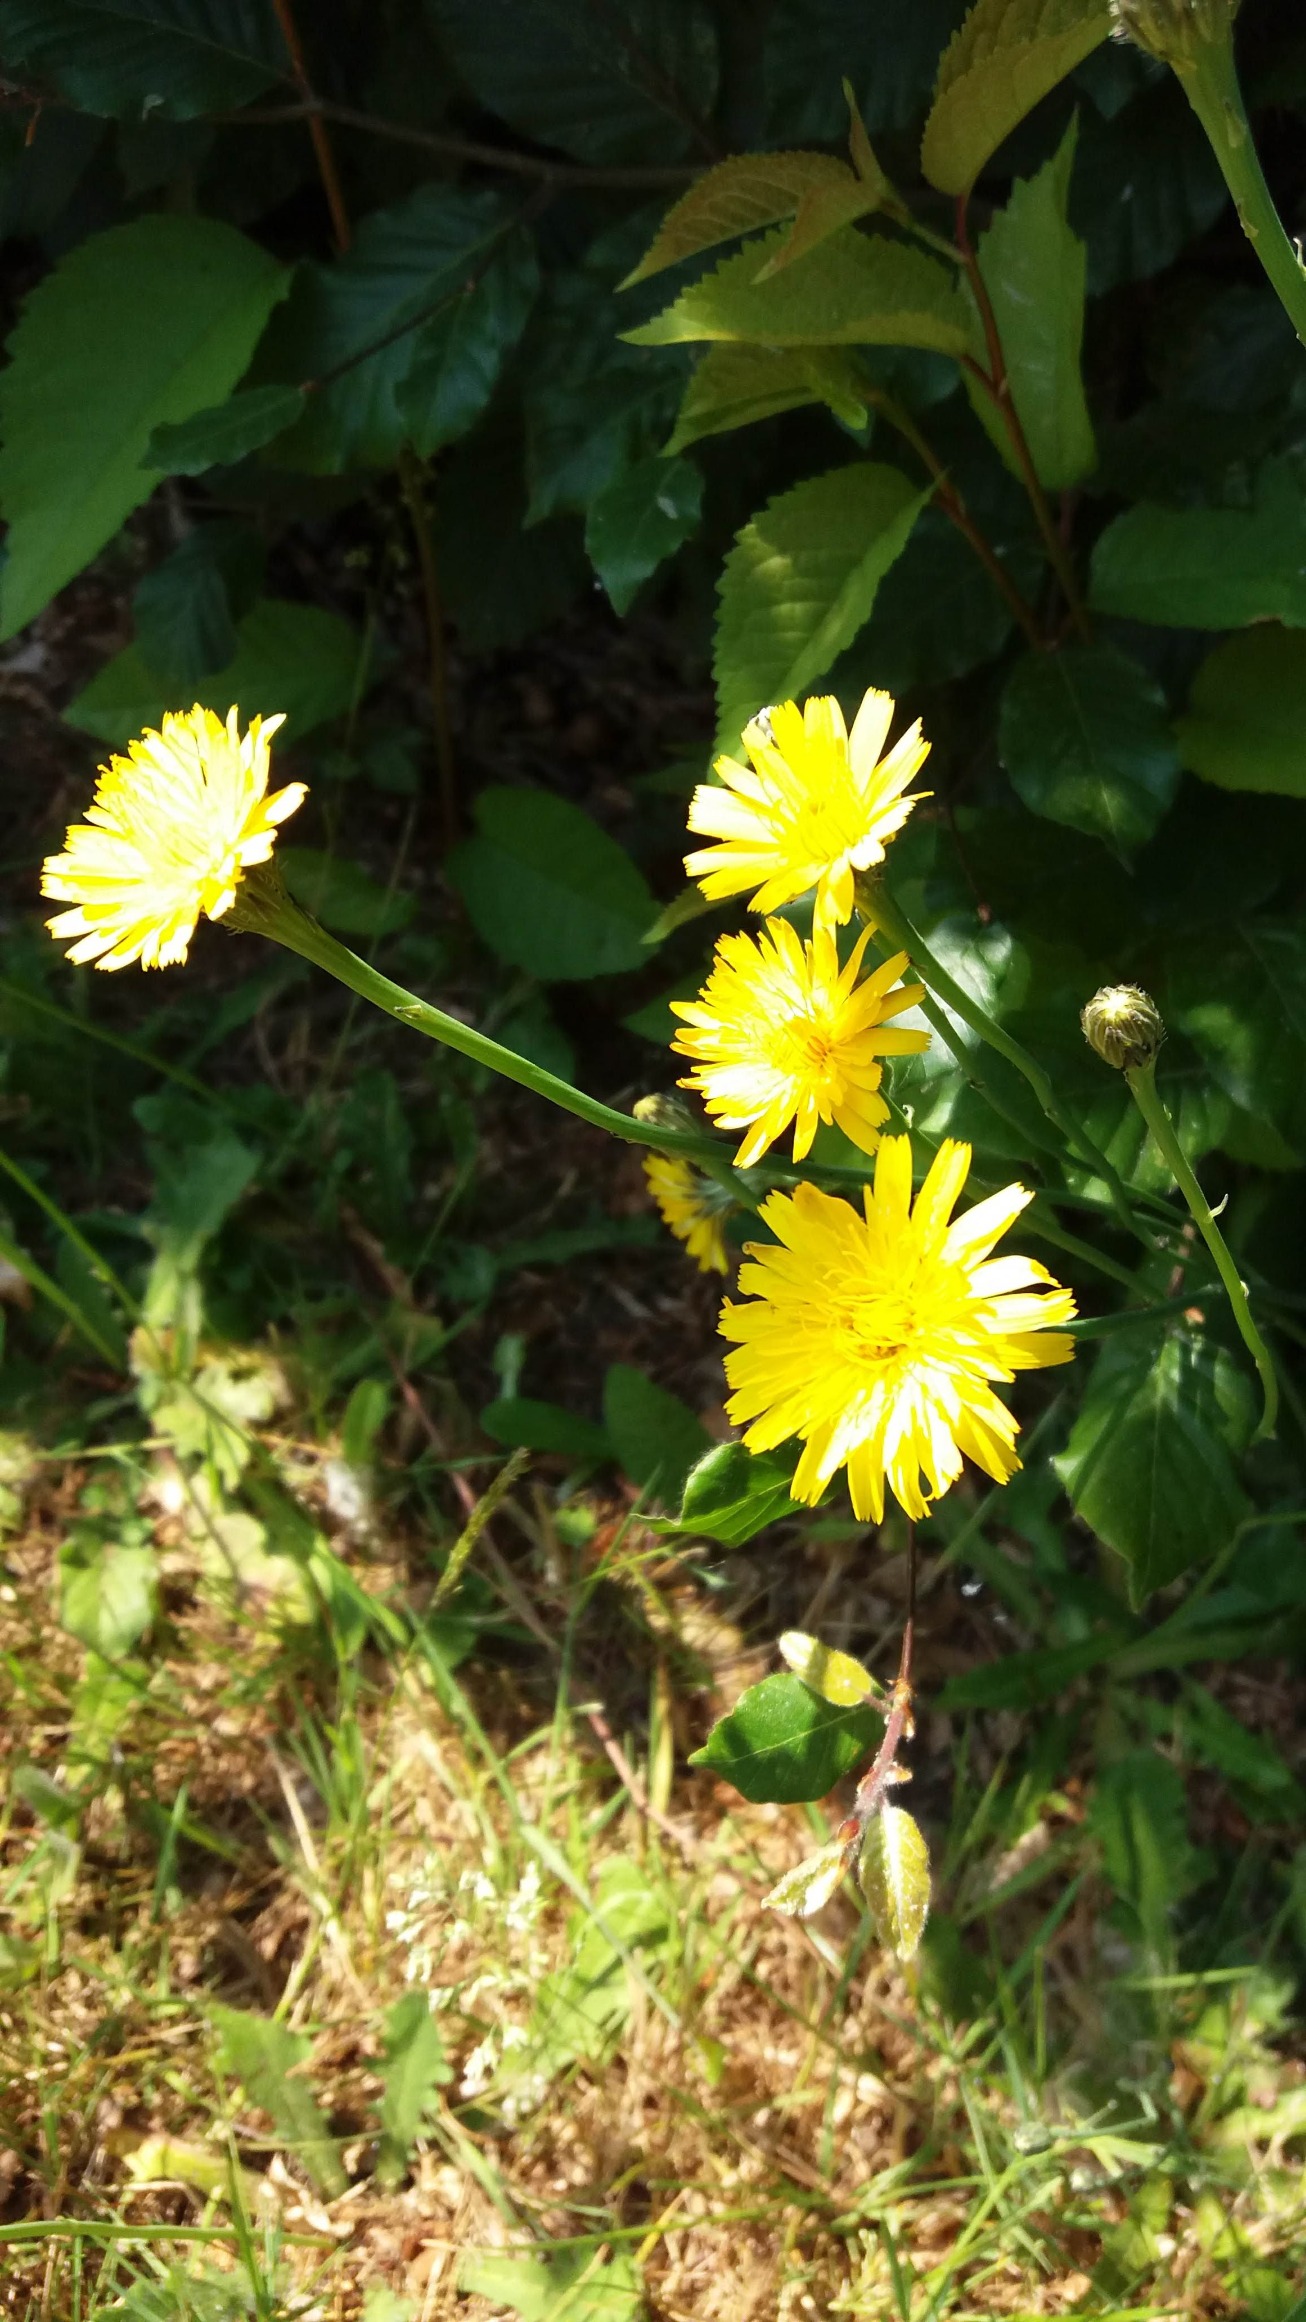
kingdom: Plantae
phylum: Tracheophyta
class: Magnoliopsida
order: Asterales
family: Asteraceae
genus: Hypochaeris
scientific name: Hypochaeris radicata
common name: Almindelig kongepen
